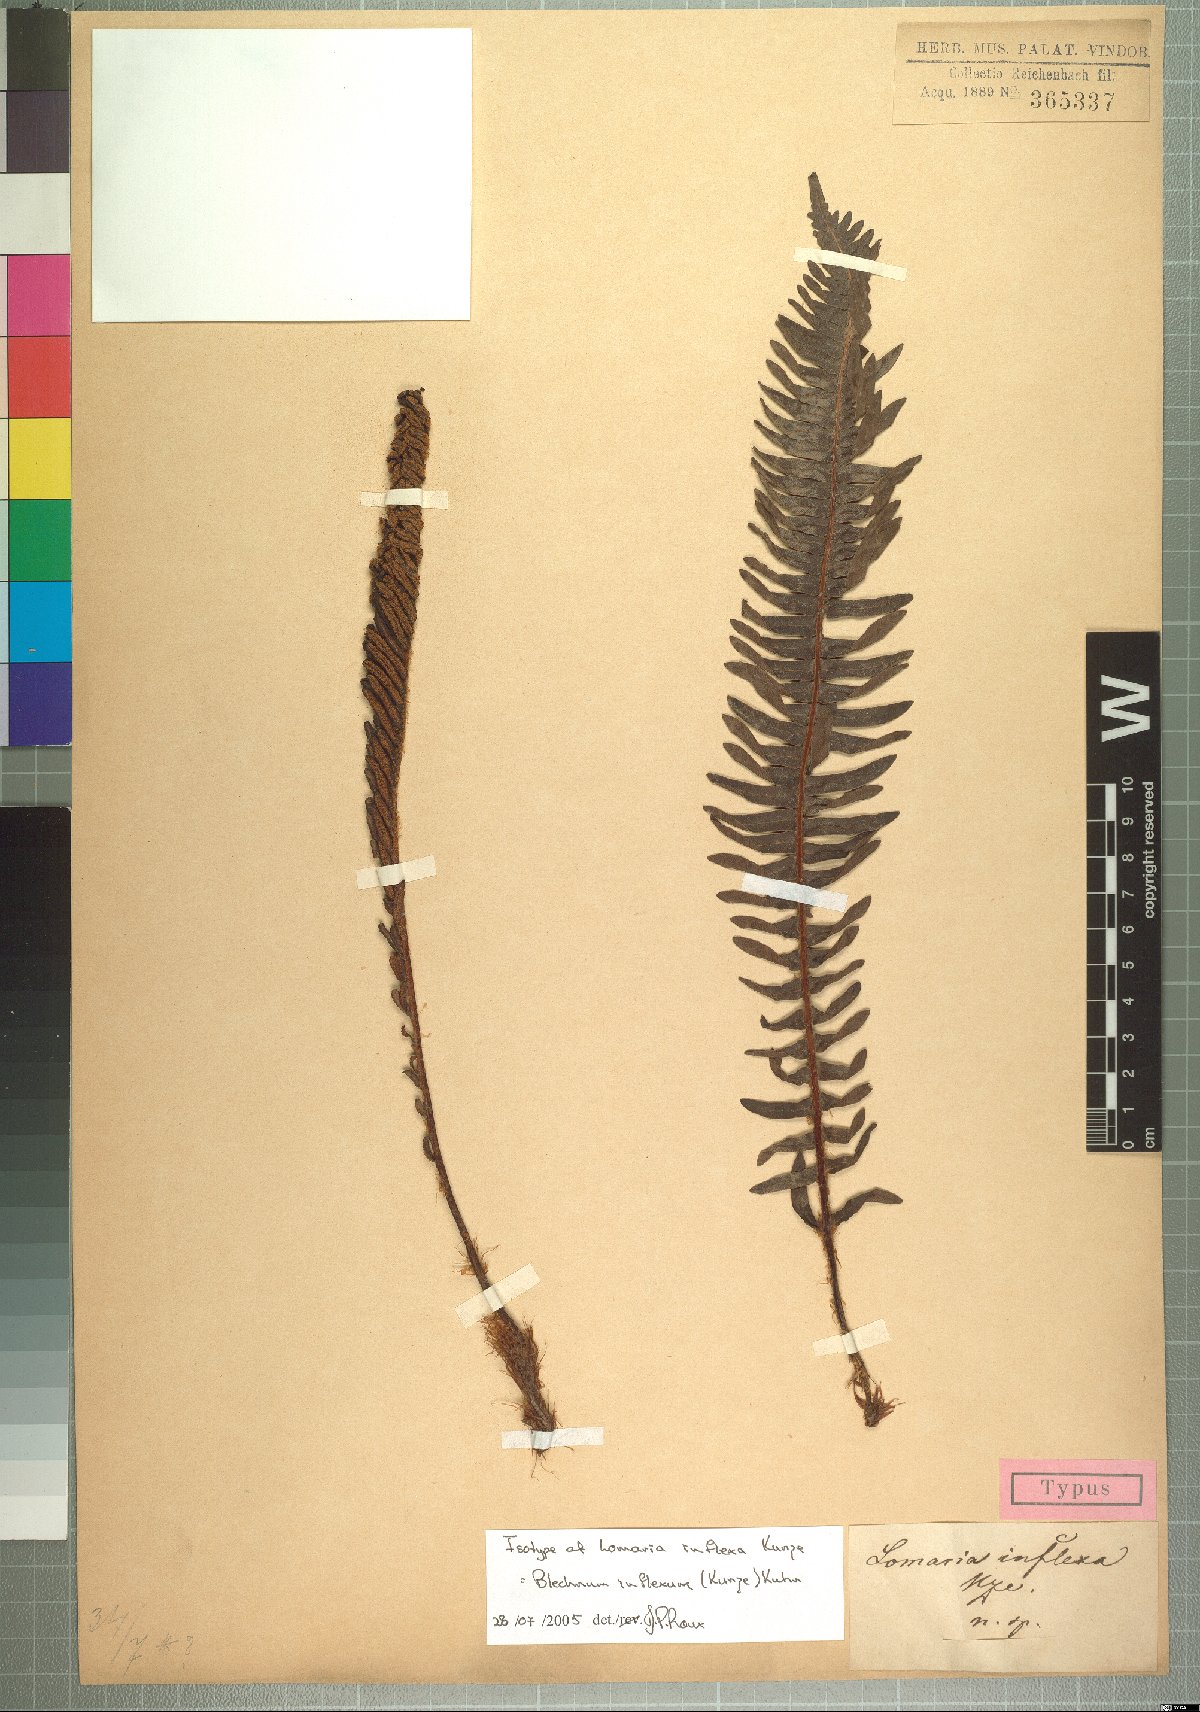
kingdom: Plantae
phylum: Tracheophyta
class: Polypodiopsida
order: Polypodiales
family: Blechnaceae
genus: Lomaria
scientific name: Lomaria inflexa
